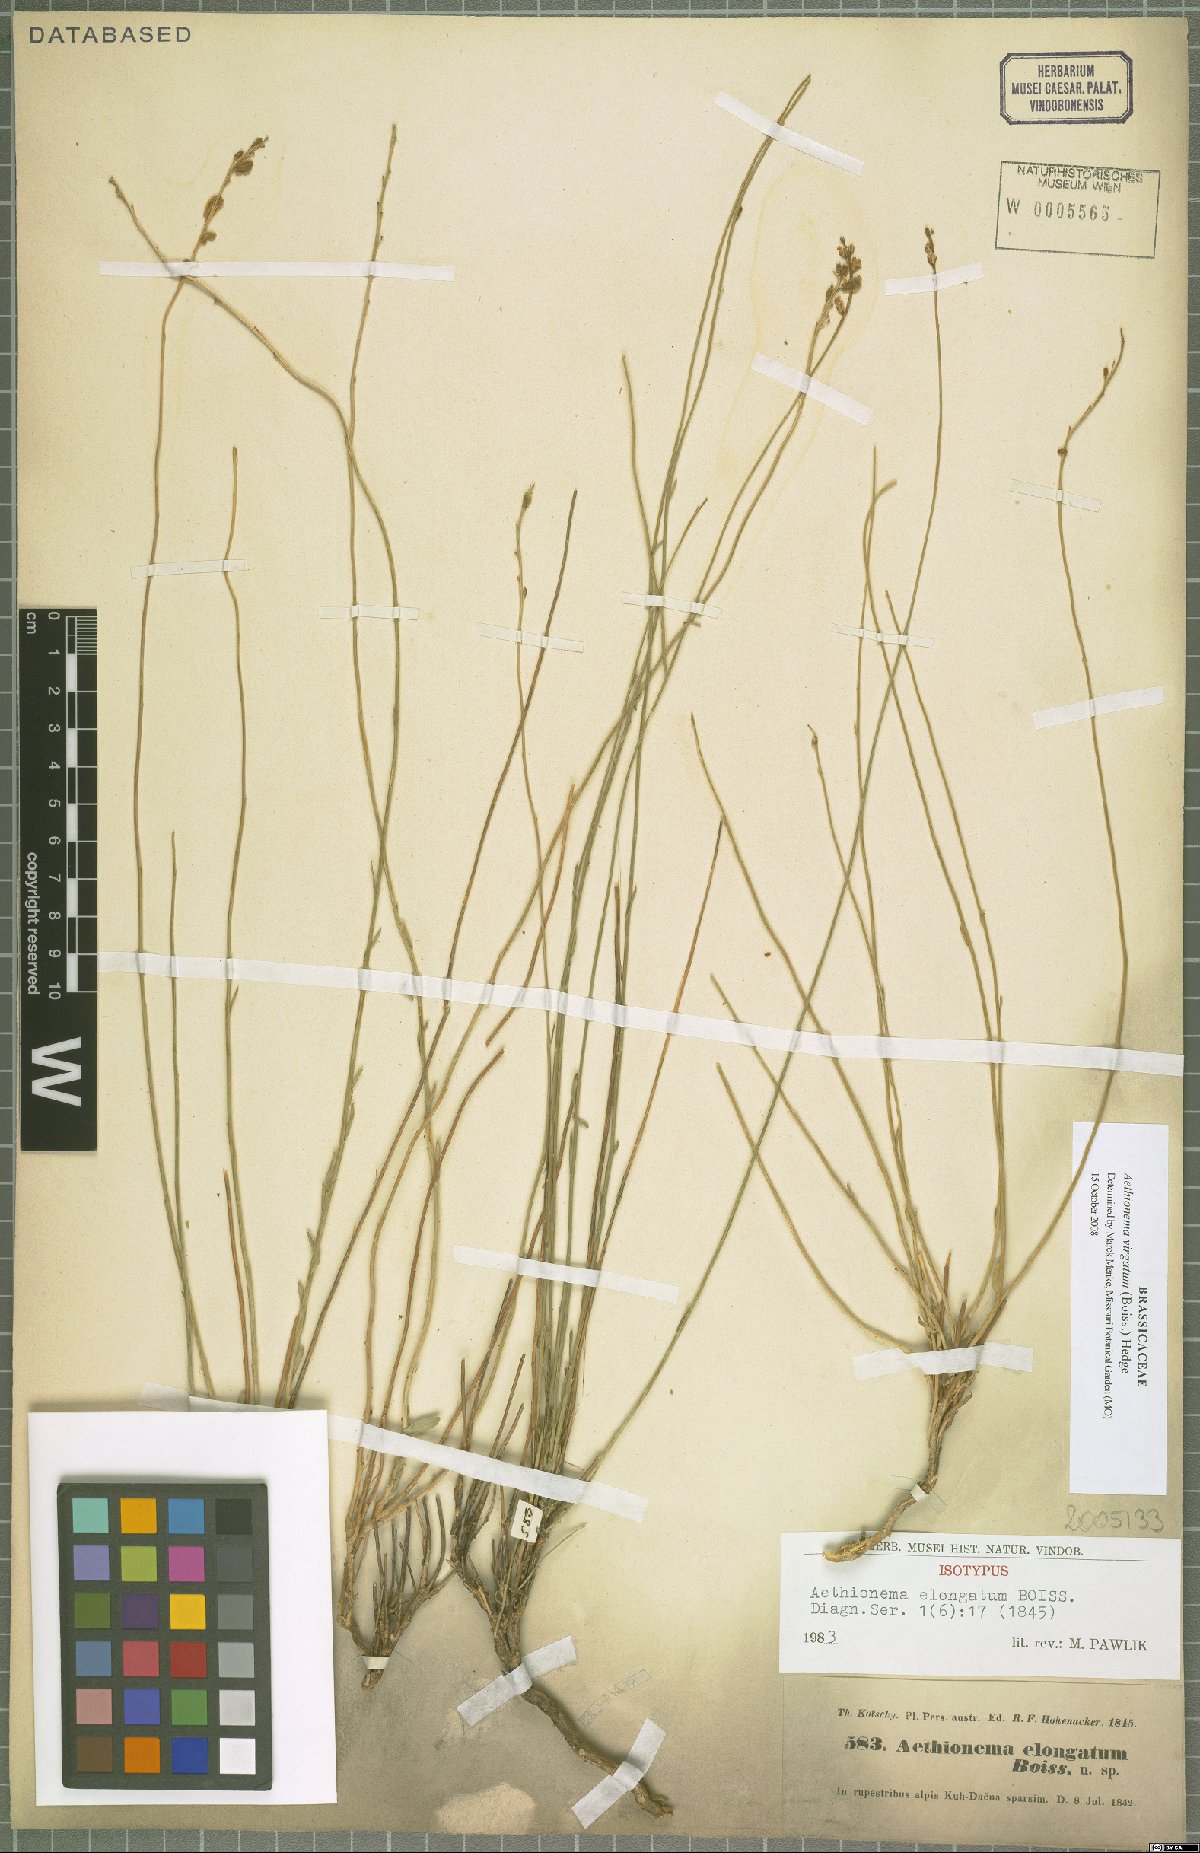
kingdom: Plantae
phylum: Tracheophyta
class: Magnoliopsida
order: Brassicales
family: Brassicaceae
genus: Aethionema
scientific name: Aethionema virgatum
